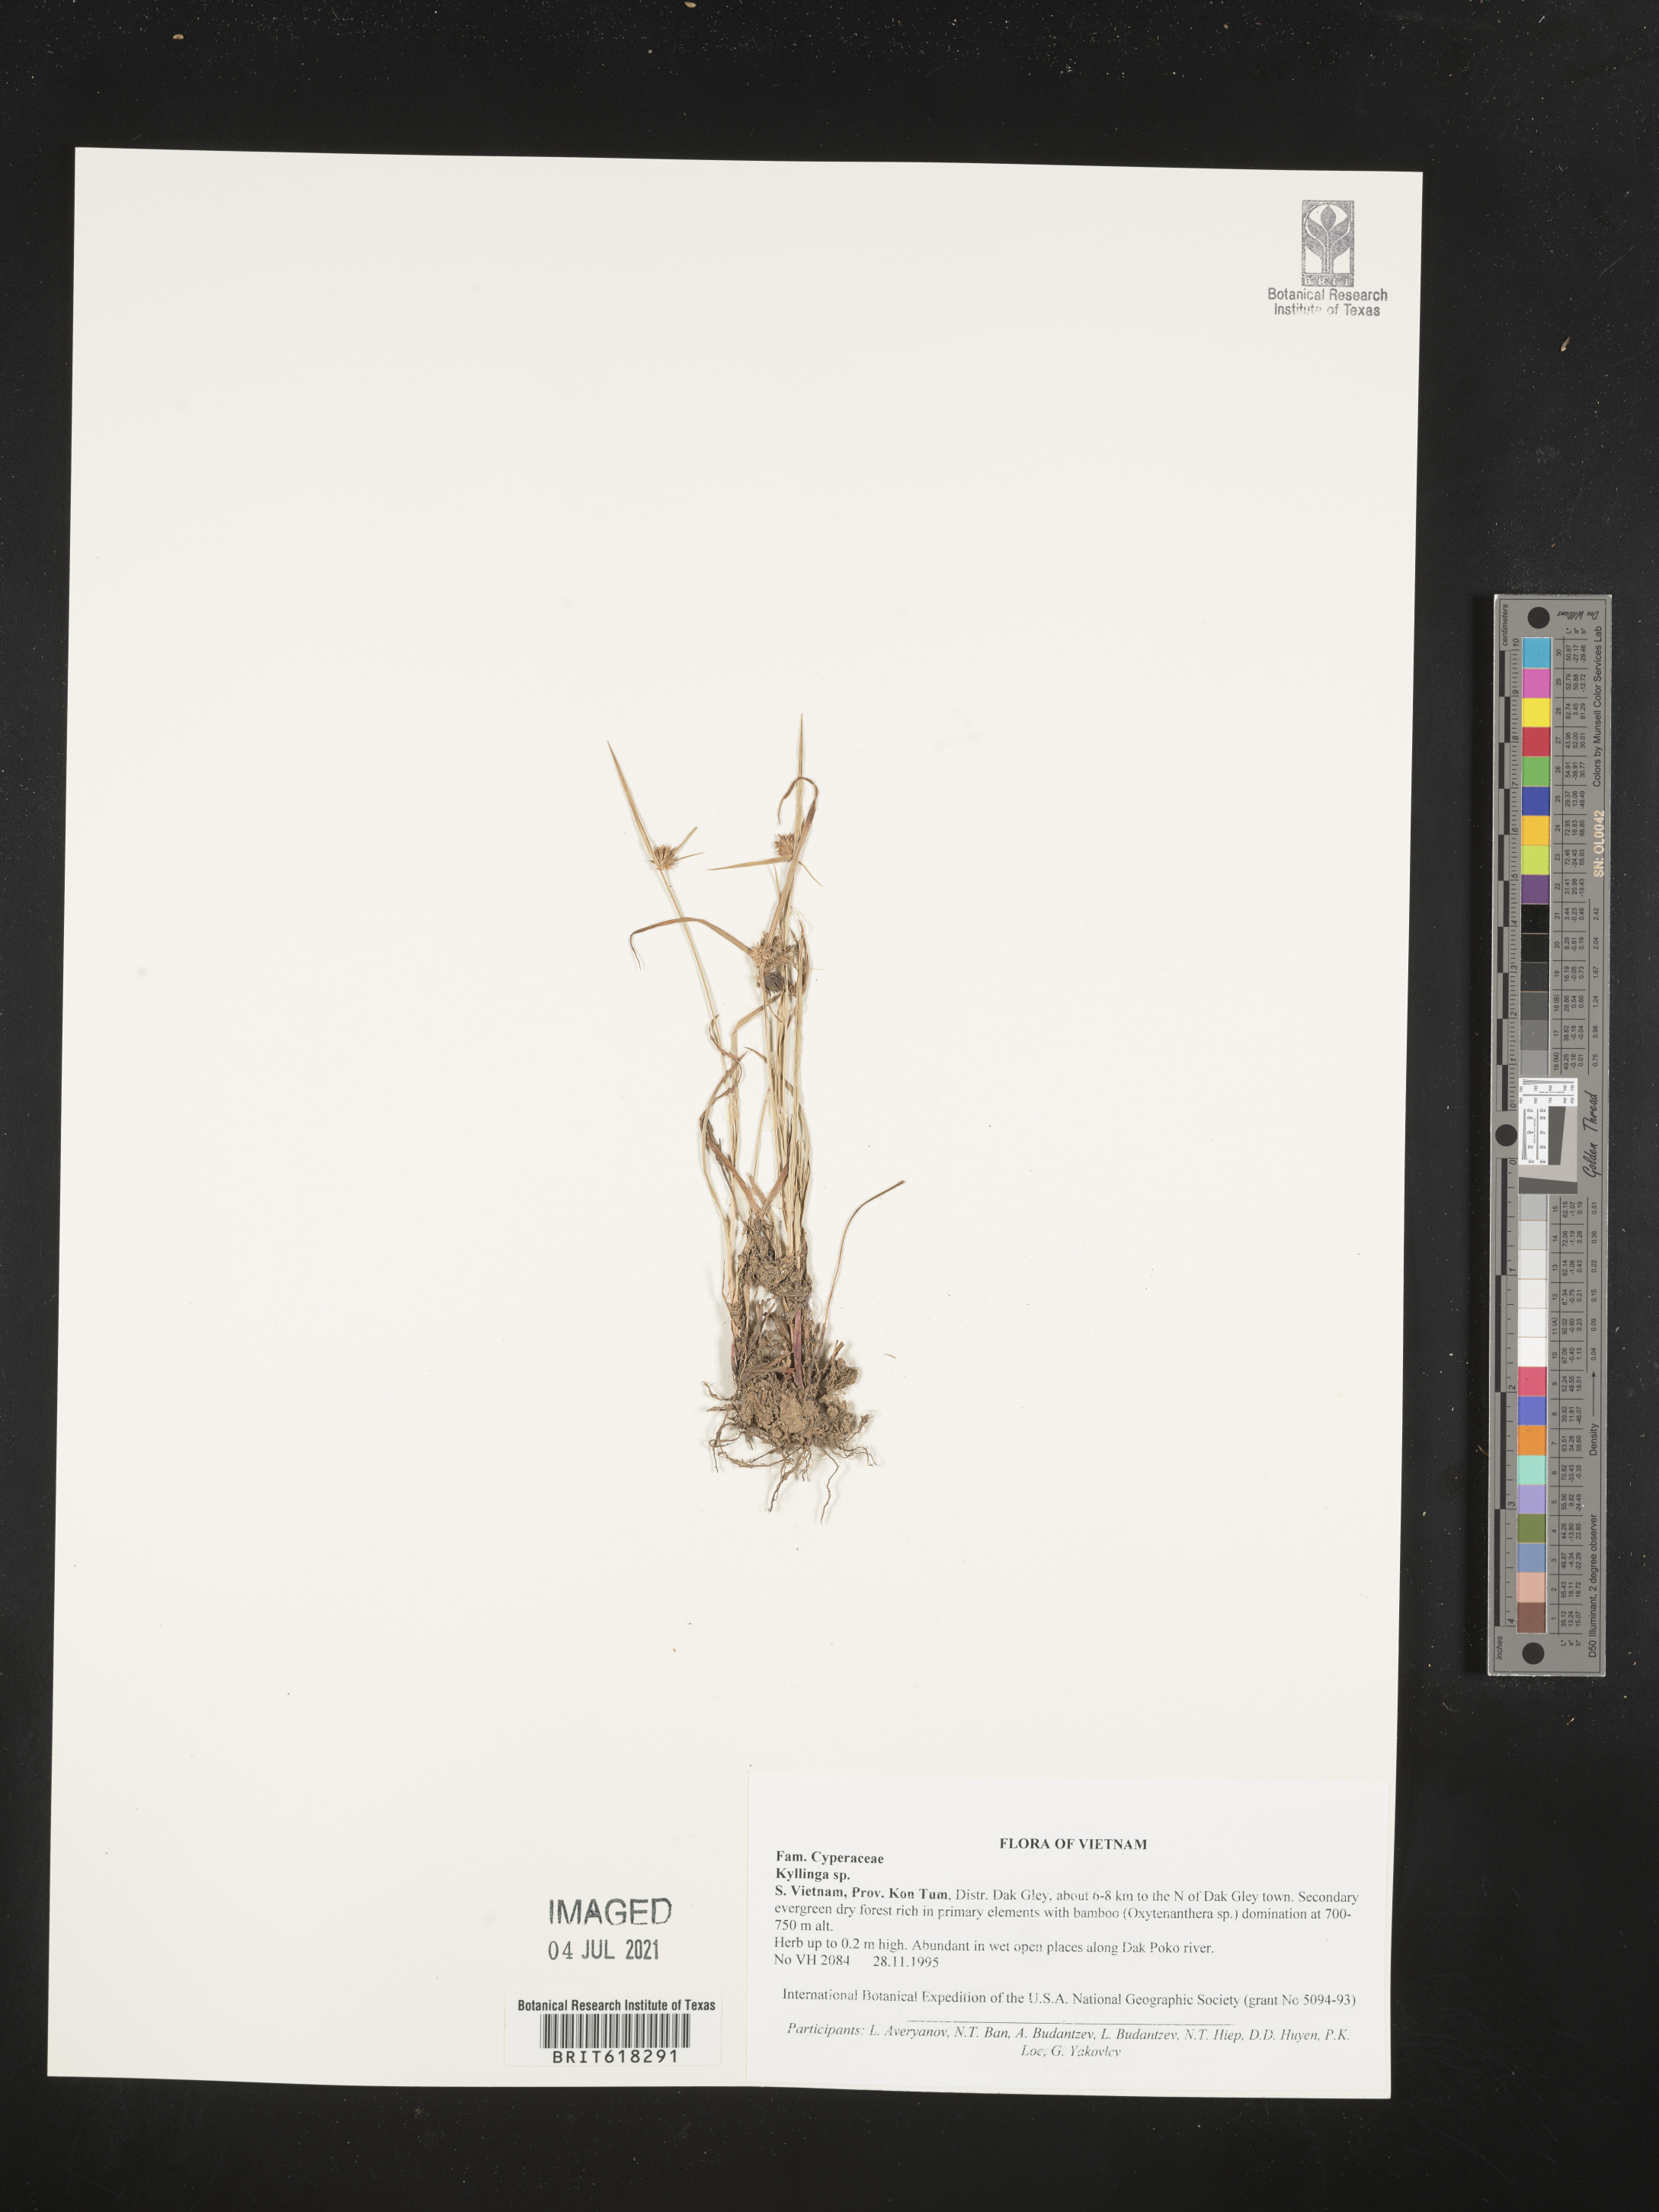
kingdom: Plantae
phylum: Tracheophyta
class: Liliopsida
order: Poales
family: Cyperaceae
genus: Cyperus
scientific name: Cyperus
